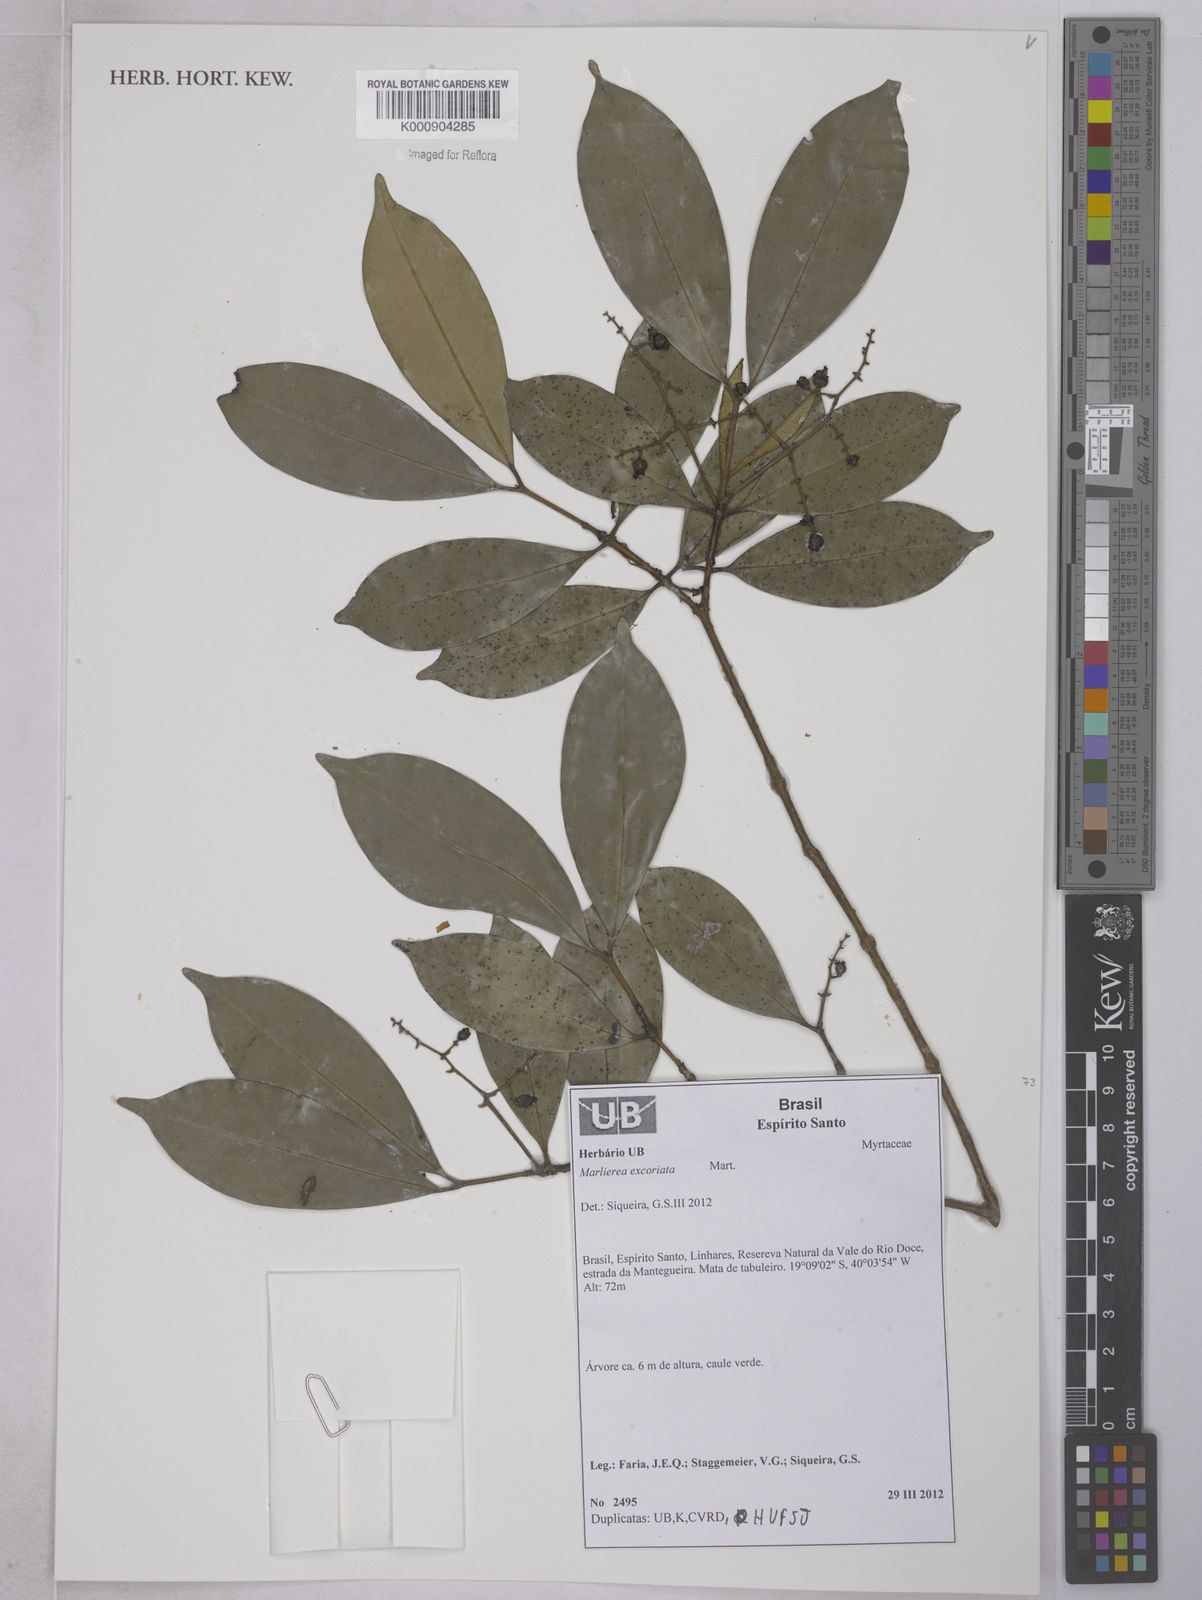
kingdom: Plantae
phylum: Tracheophyta
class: Magnoliopsida
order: Myrtales
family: Myrtaceae
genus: Myrcia
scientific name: Myrcia excoriata
